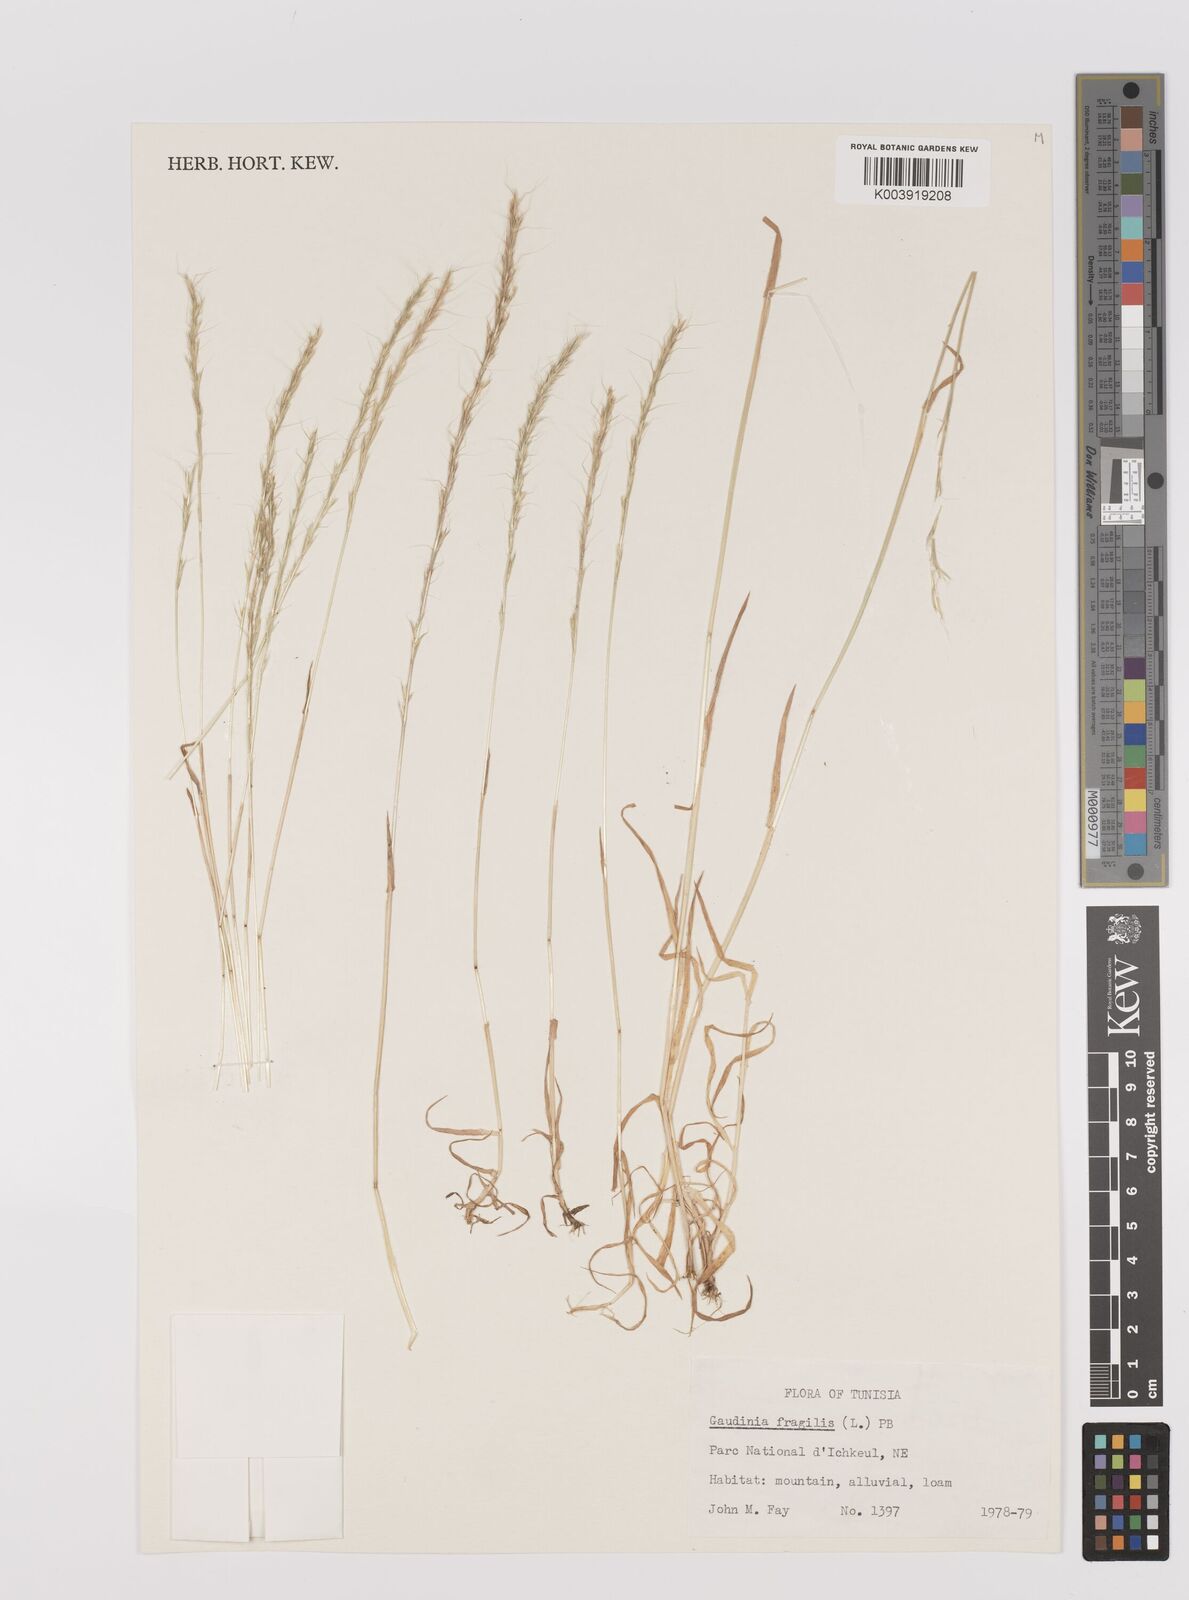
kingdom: Plantae
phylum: Tracheophyta
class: Liliopsida
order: Poales
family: Poaceae
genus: Gaudinia
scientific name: Gaudinia fragilis
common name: French oat-grass
